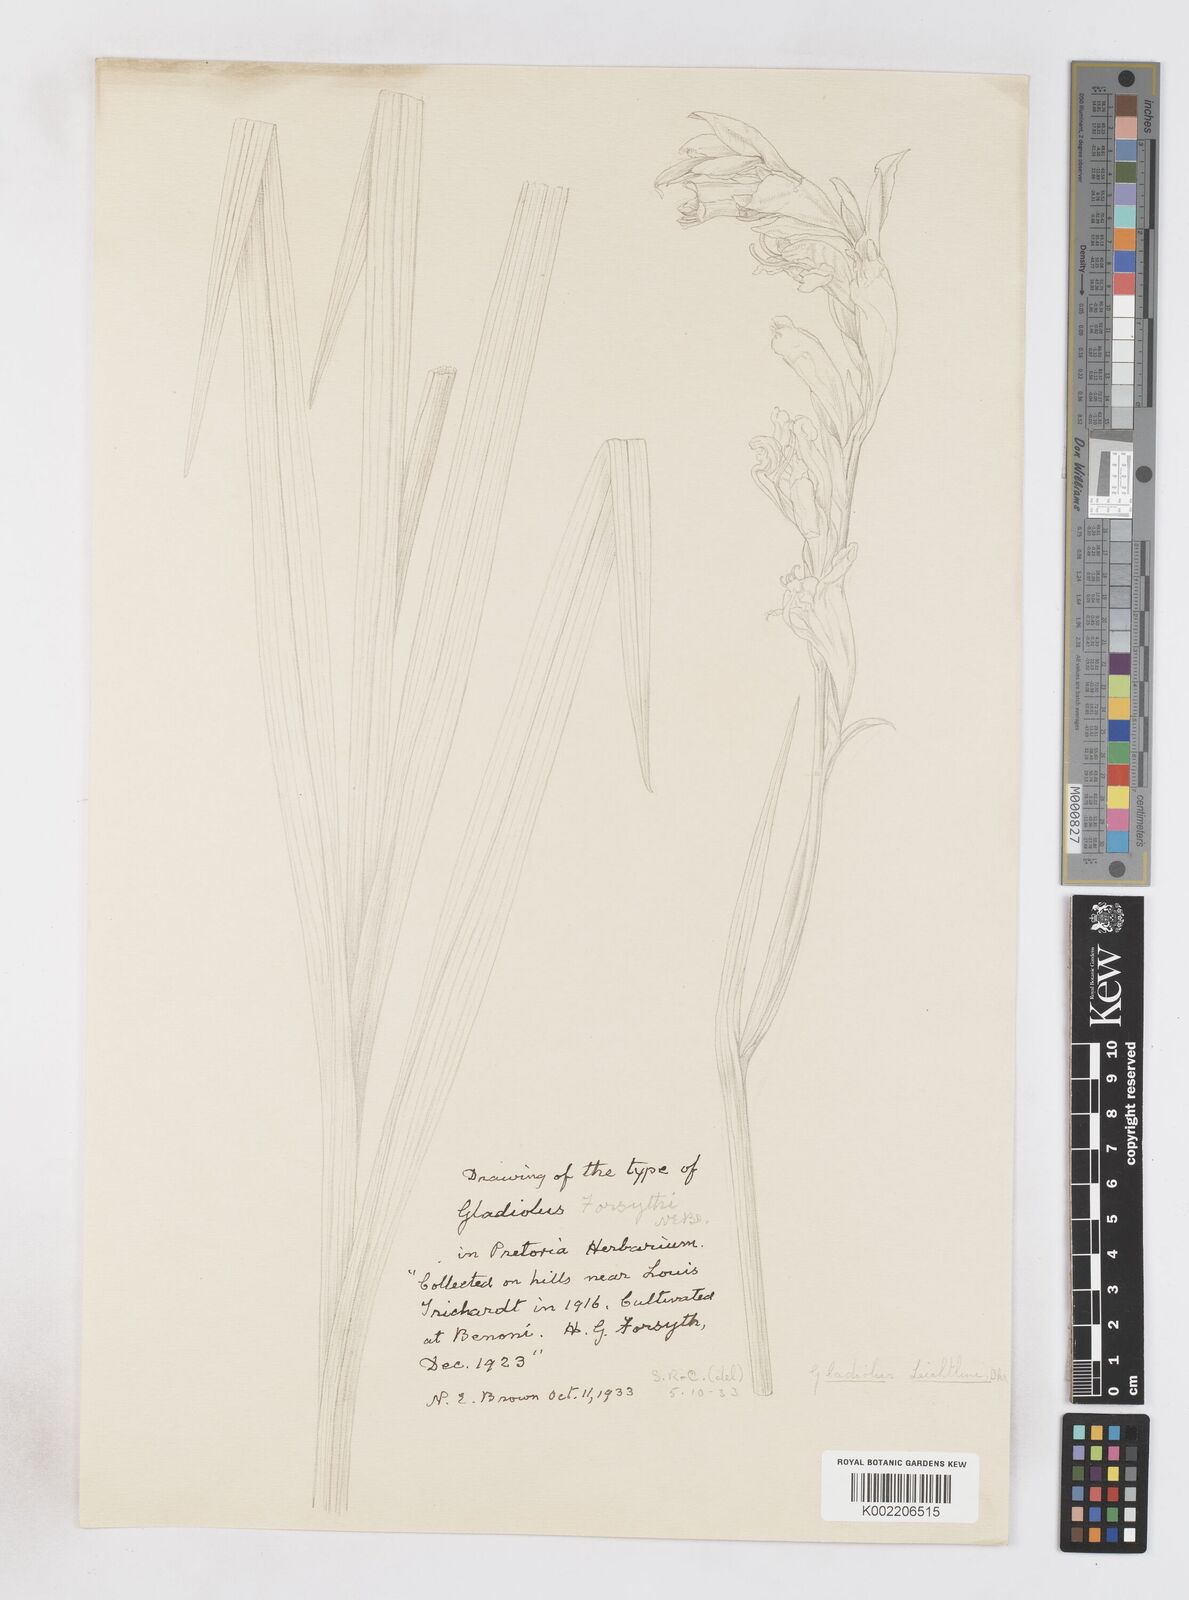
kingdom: Plantae
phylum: Tracheophyta
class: Liliopsida
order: Asparagales
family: Iridaceae
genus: Gladiolus
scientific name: Gladiolus dalenii
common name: Cornflag
